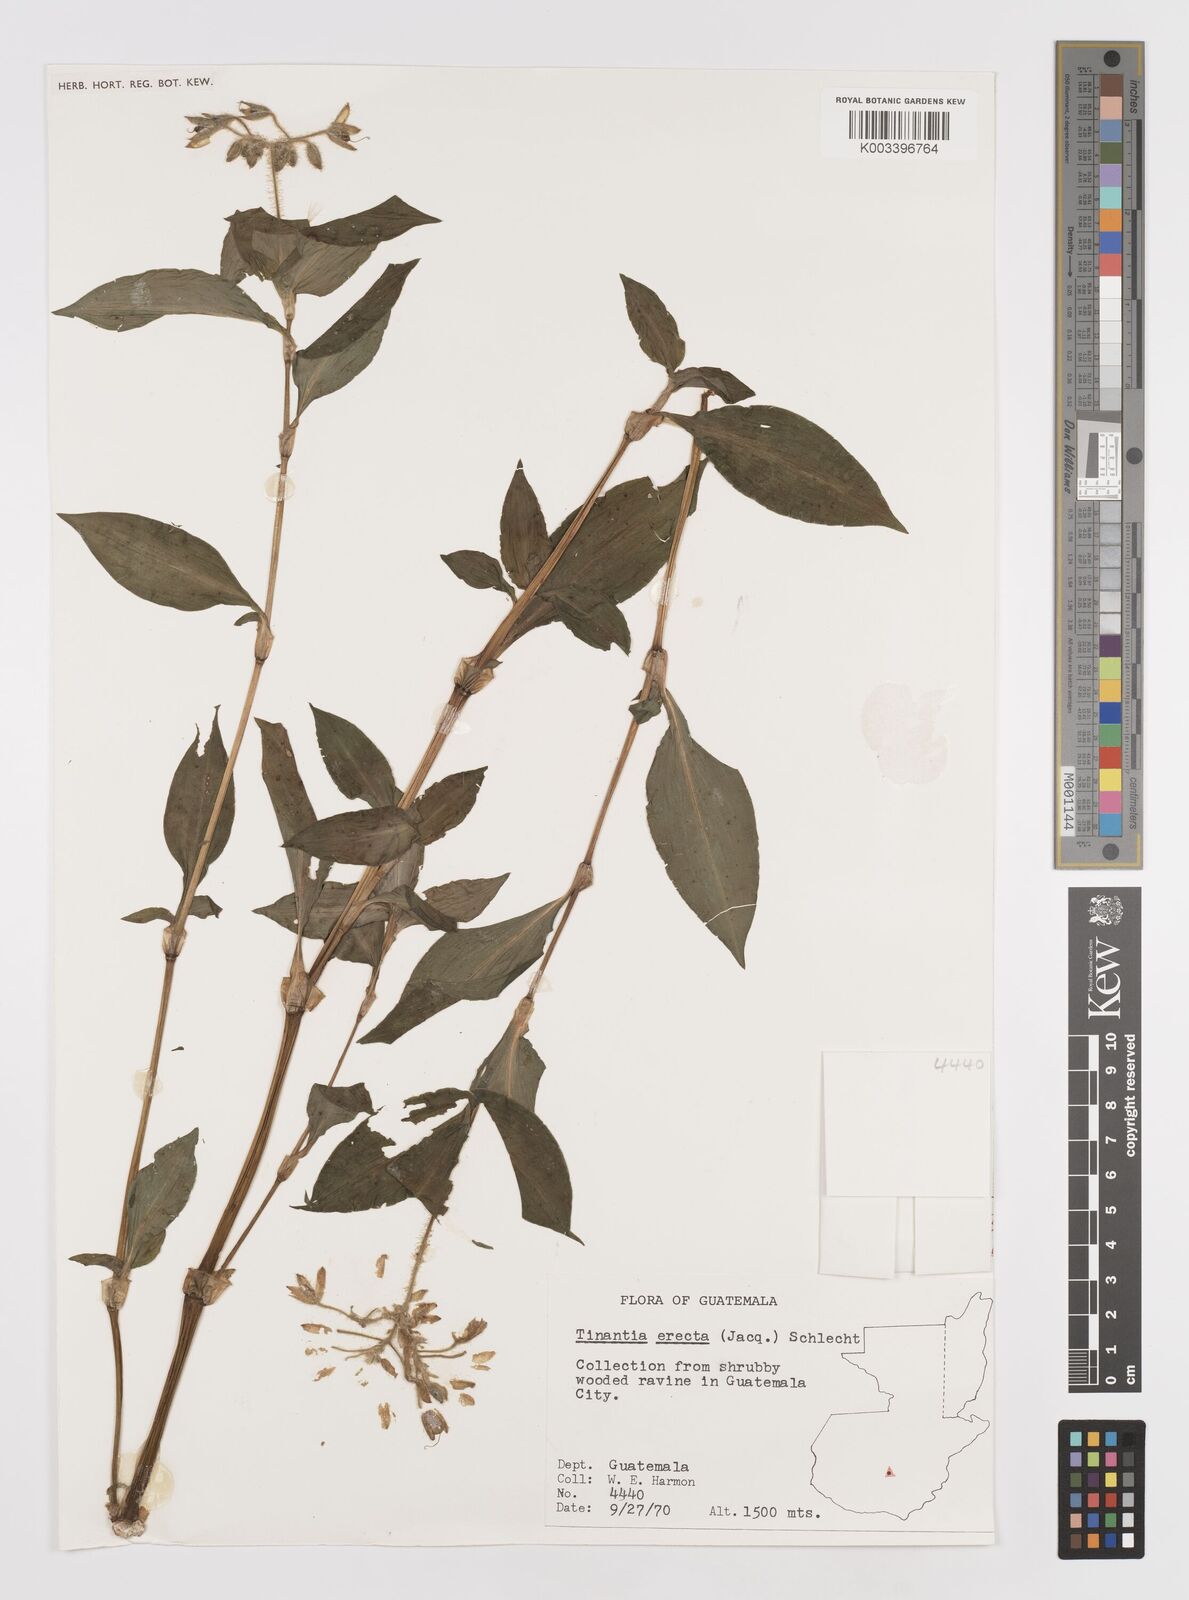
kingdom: Plantae
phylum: Tracheophyta
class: Liliopsida
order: Commelinales
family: Commelinaceae
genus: Tinantia
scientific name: Tinantia erecta
